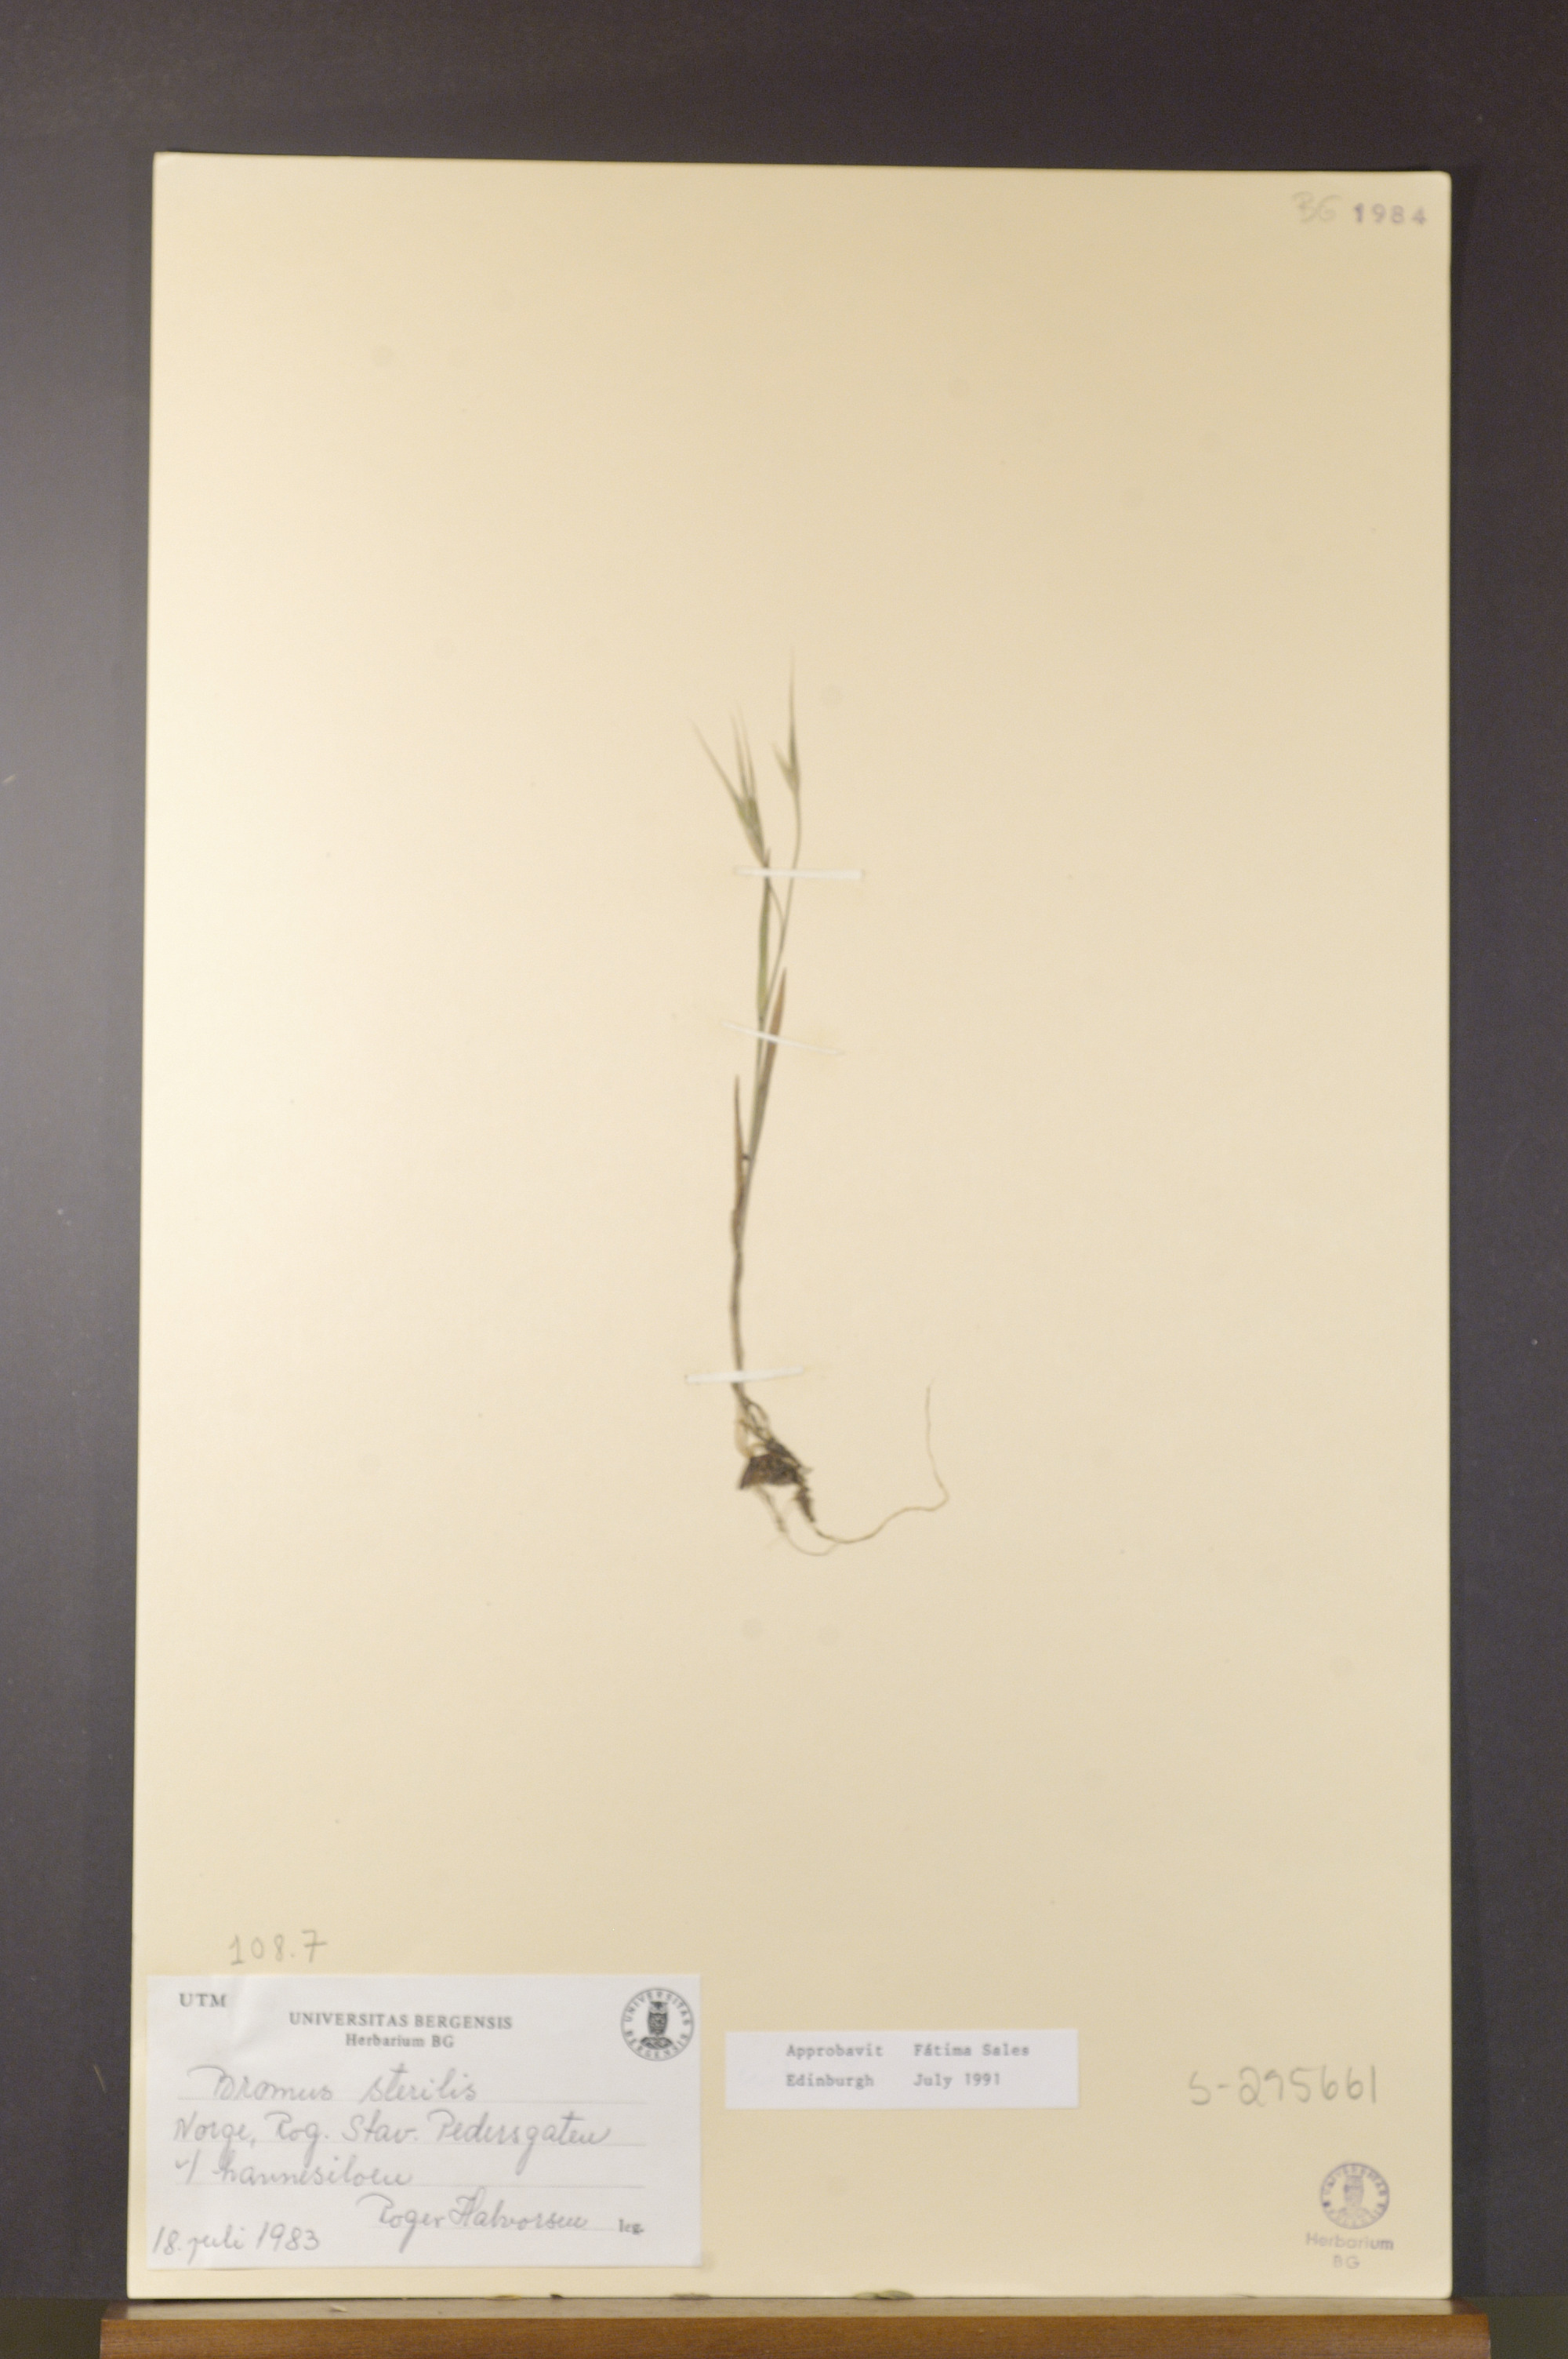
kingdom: Plantae
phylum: Tracheophyta
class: Liliopsida
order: Poales
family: Poaceae
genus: Bromus
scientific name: Bromus sterilis
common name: Poverty brome
